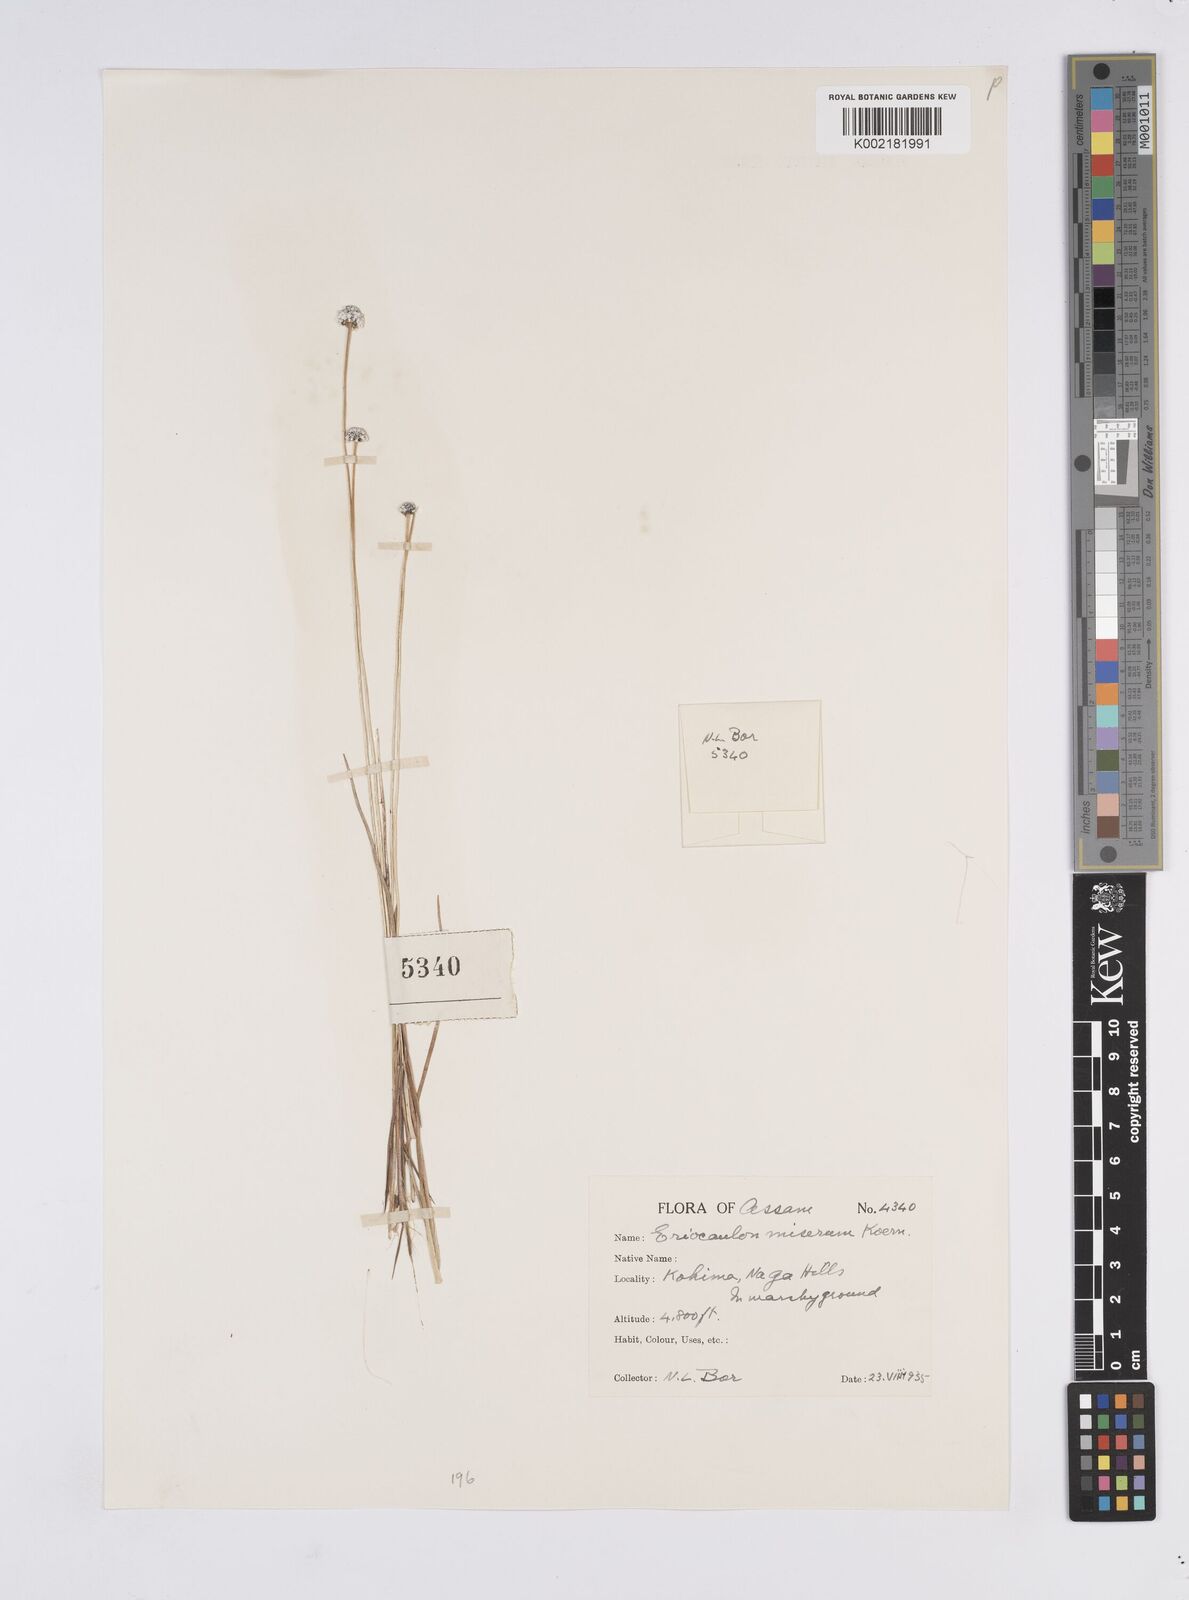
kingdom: Plantae
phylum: Tracheophyta
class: Liliopsida
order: Poales
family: Eriocaulaceae
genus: Eriocaulon
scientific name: Eriocaulon miserum
